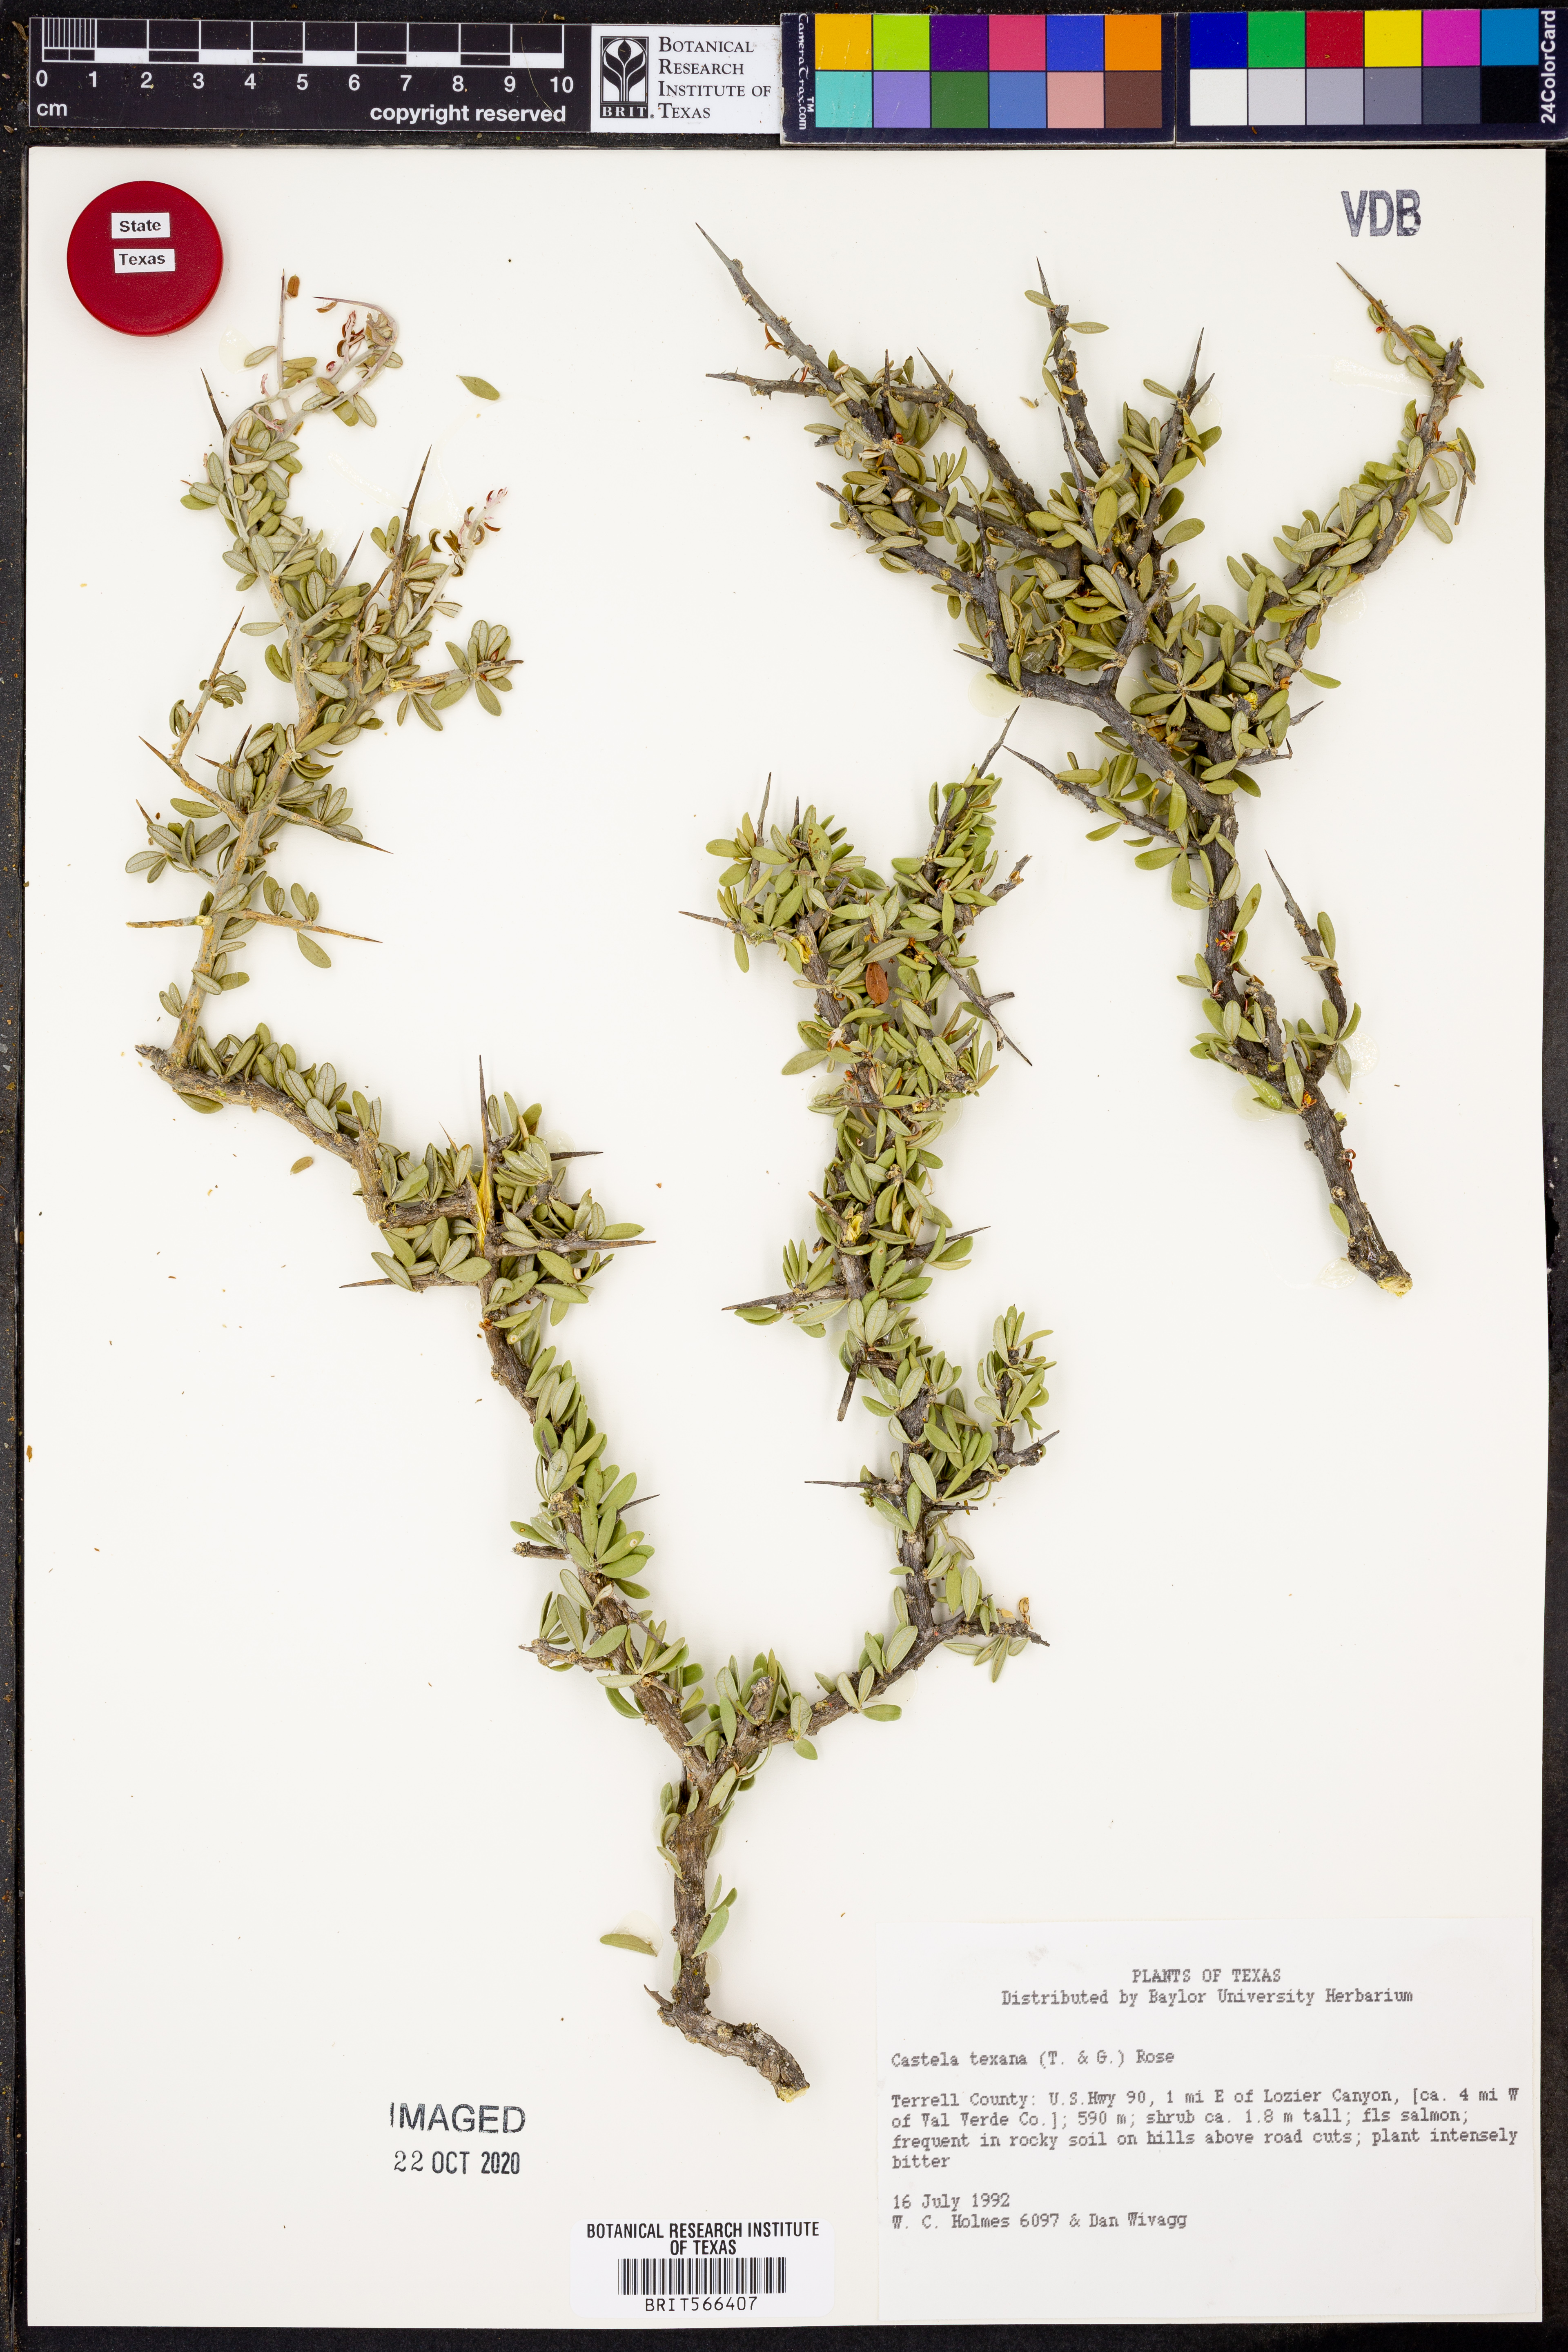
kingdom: Plantae
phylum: Tracheophyta
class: Magnoliopsida
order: Sapindales
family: Simaroubaceae
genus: Castela
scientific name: Castela tortuosa
